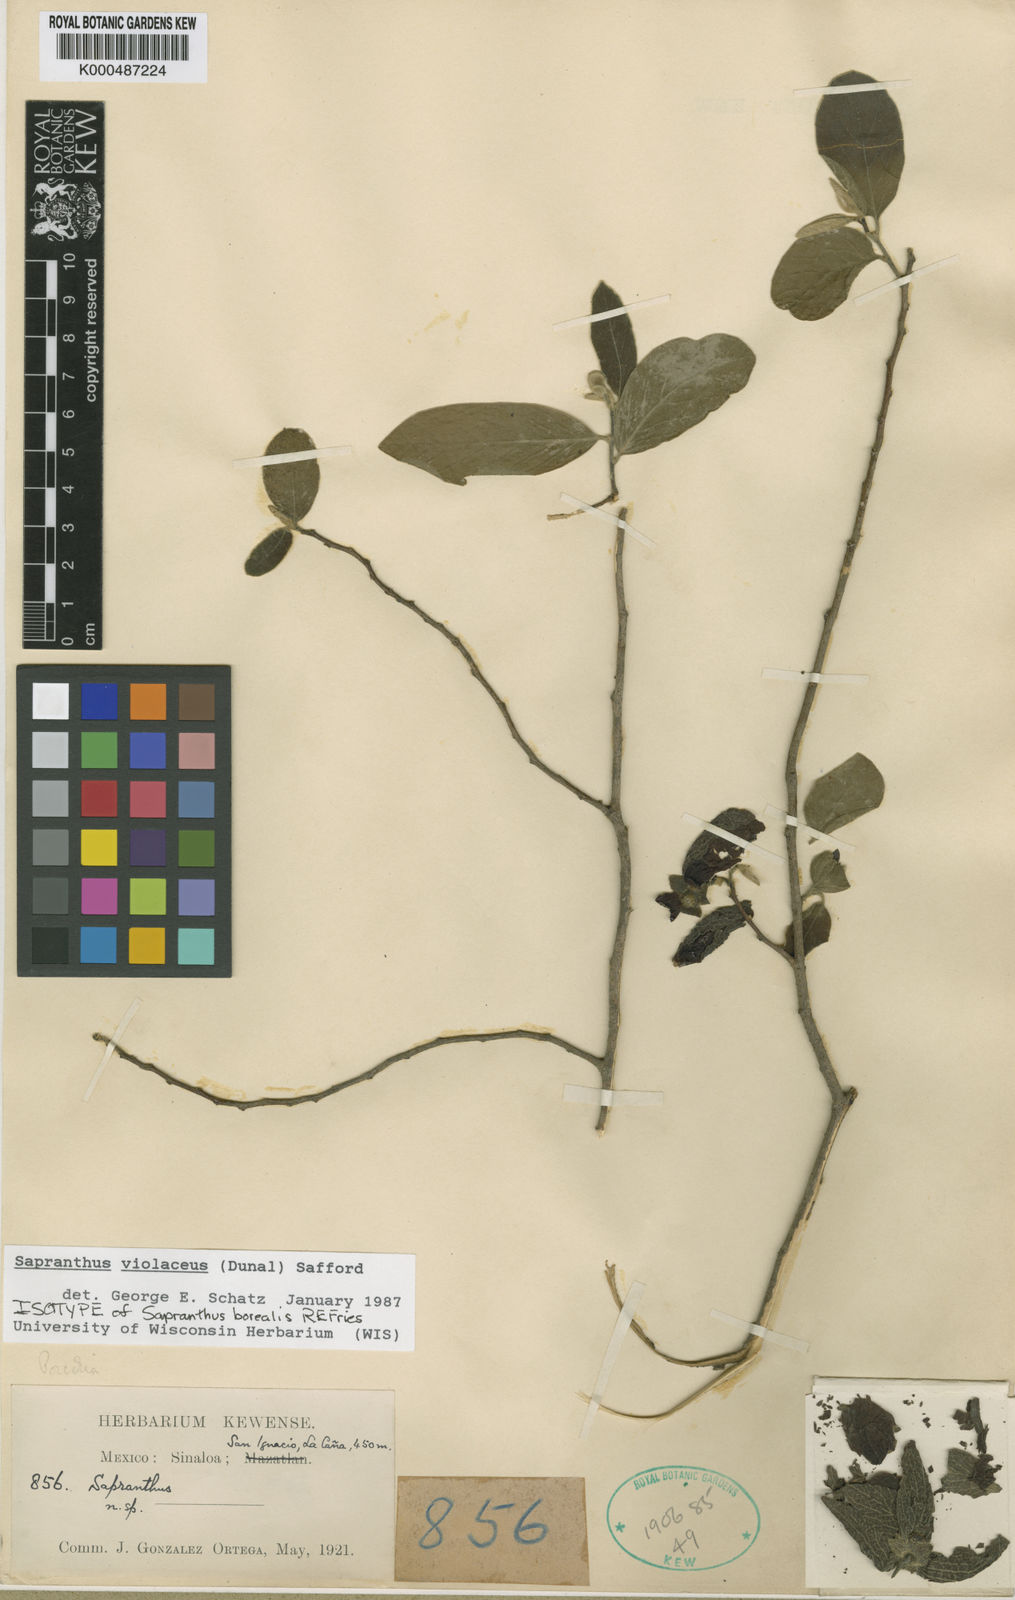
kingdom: Plantae
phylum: Tracheophyta
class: Magnoliopsida
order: Magnoliales
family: Annonaceae
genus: Sapranthus
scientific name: Sapranthus
